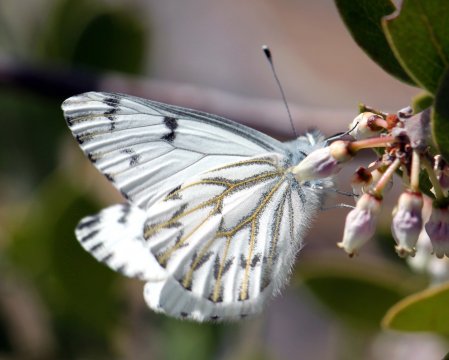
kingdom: Animalia
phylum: Arthropoda
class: Insecta
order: Lepidoptera
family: Pieridae
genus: Pontia
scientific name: Pontia sisymbrii
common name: Spring White
